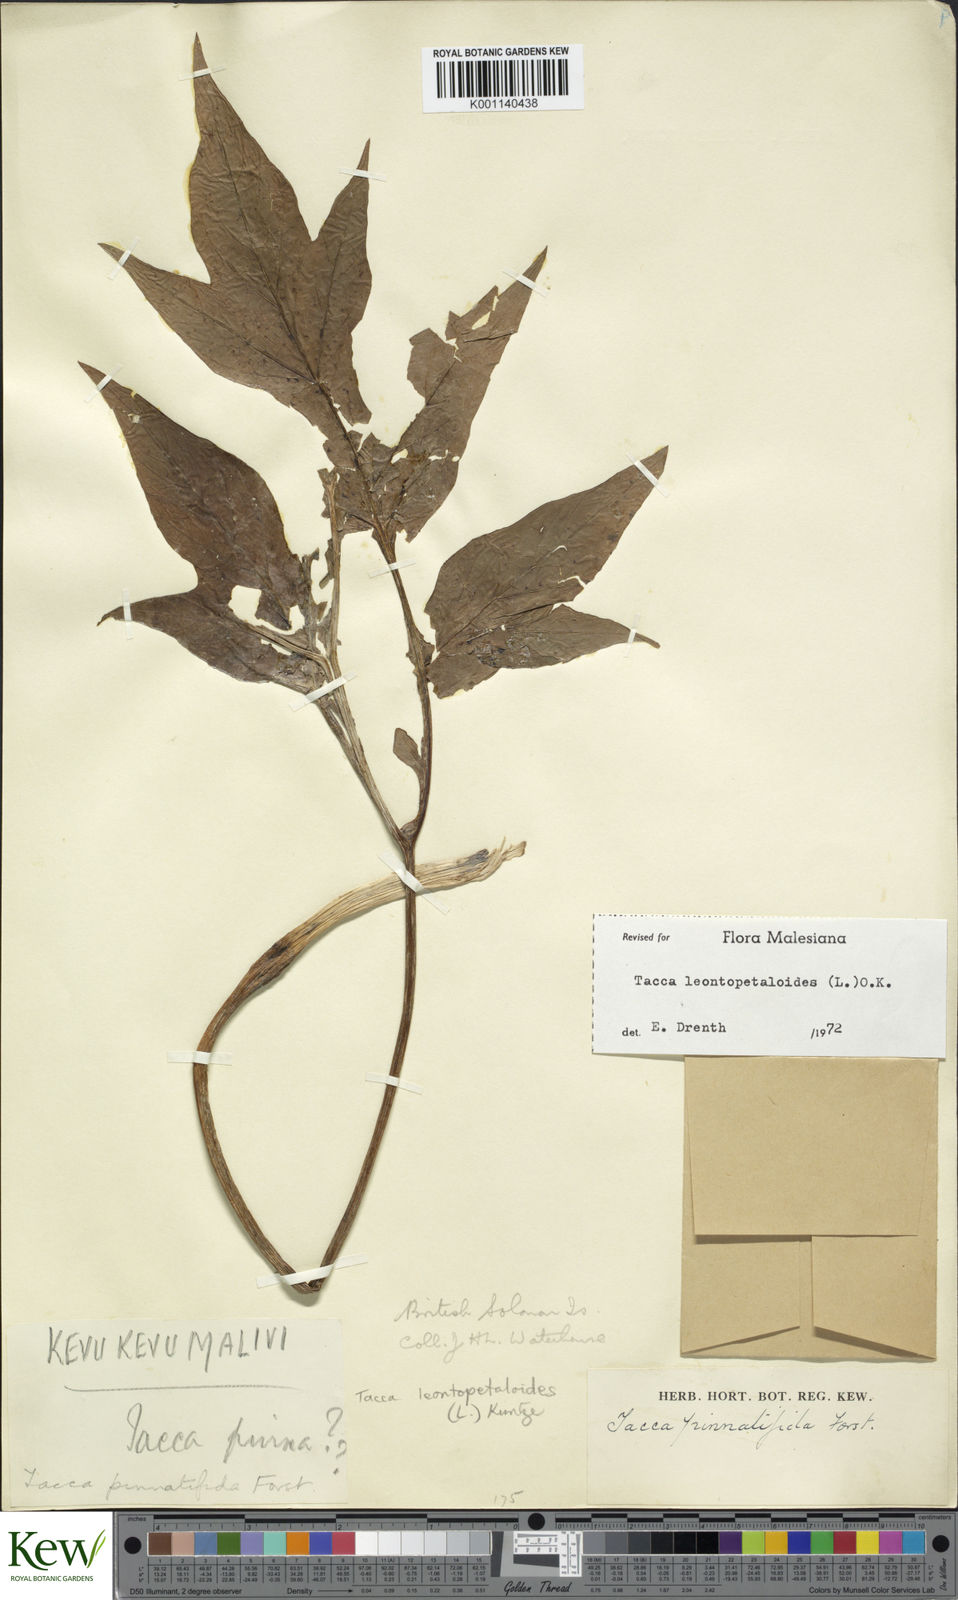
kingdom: Plantae
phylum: Tracheophyta
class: Liliopsida
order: Dioscoreales
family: Dioscoreaceae
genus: Tacca
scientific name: Tacca leontopetaloides
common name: Arrowroot
